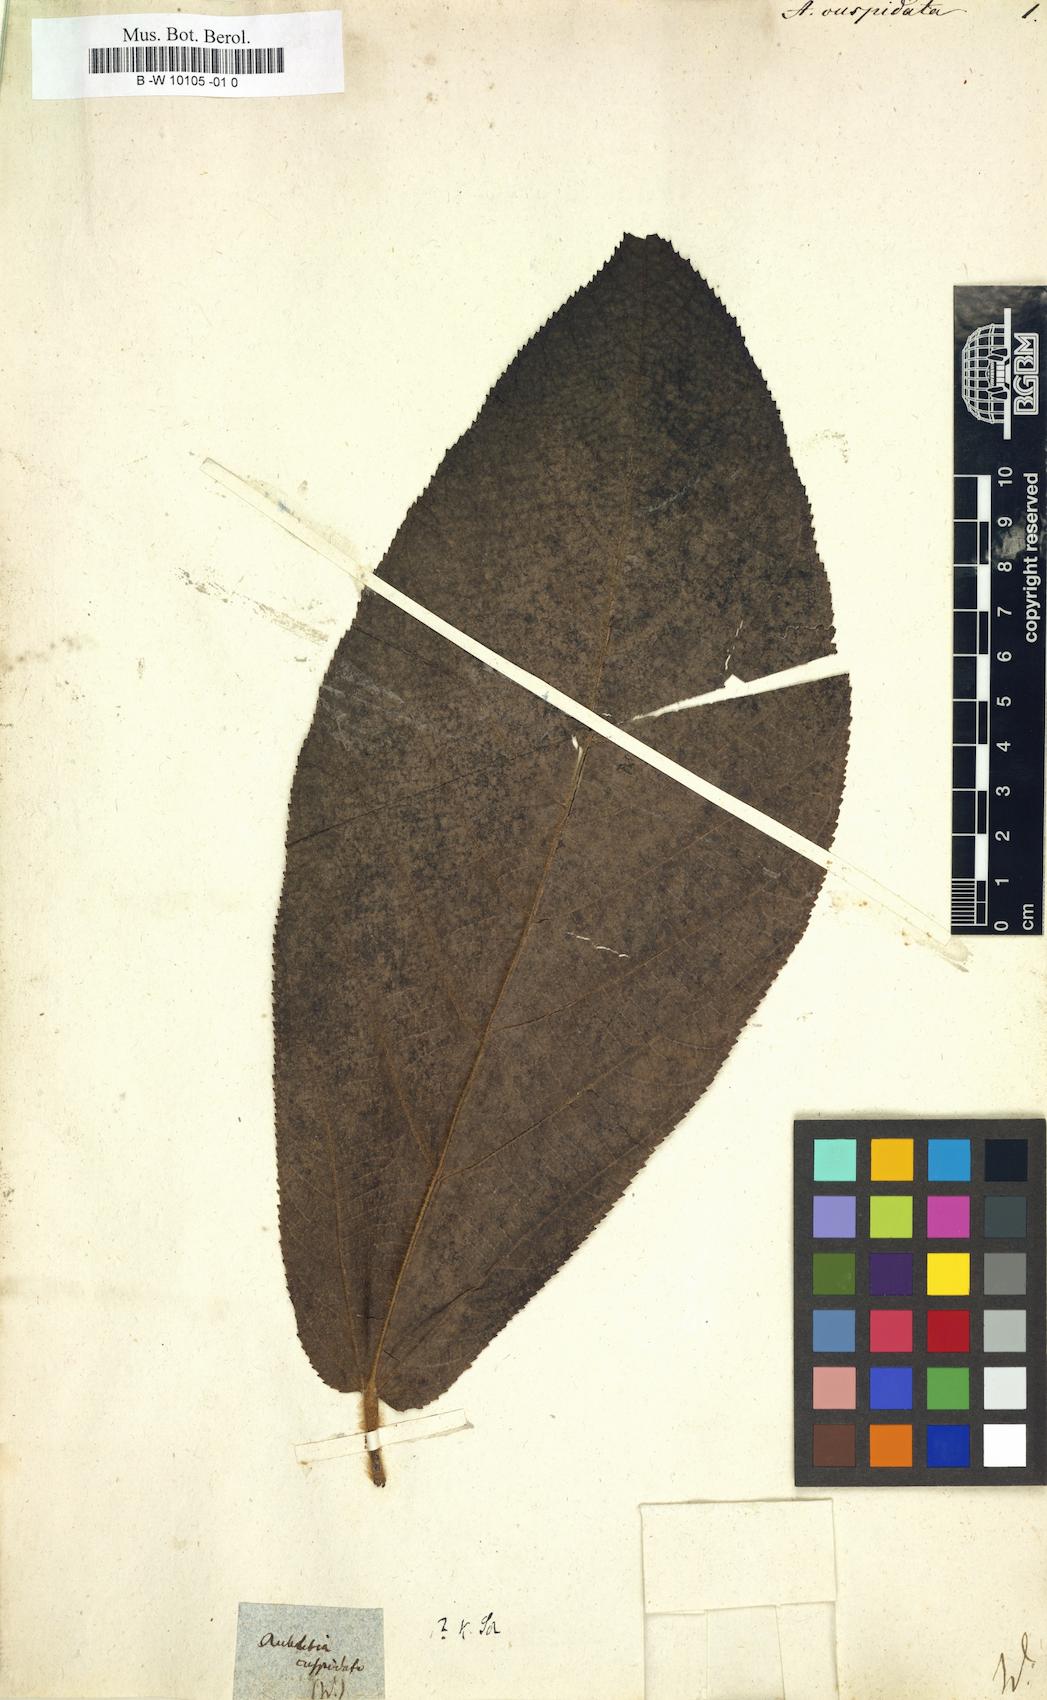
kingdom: Plantae
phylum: Tracheophyta
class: Magnoliopsida
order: Malvales
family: Malvaceae
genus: Apeiba
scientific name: Apeiba
